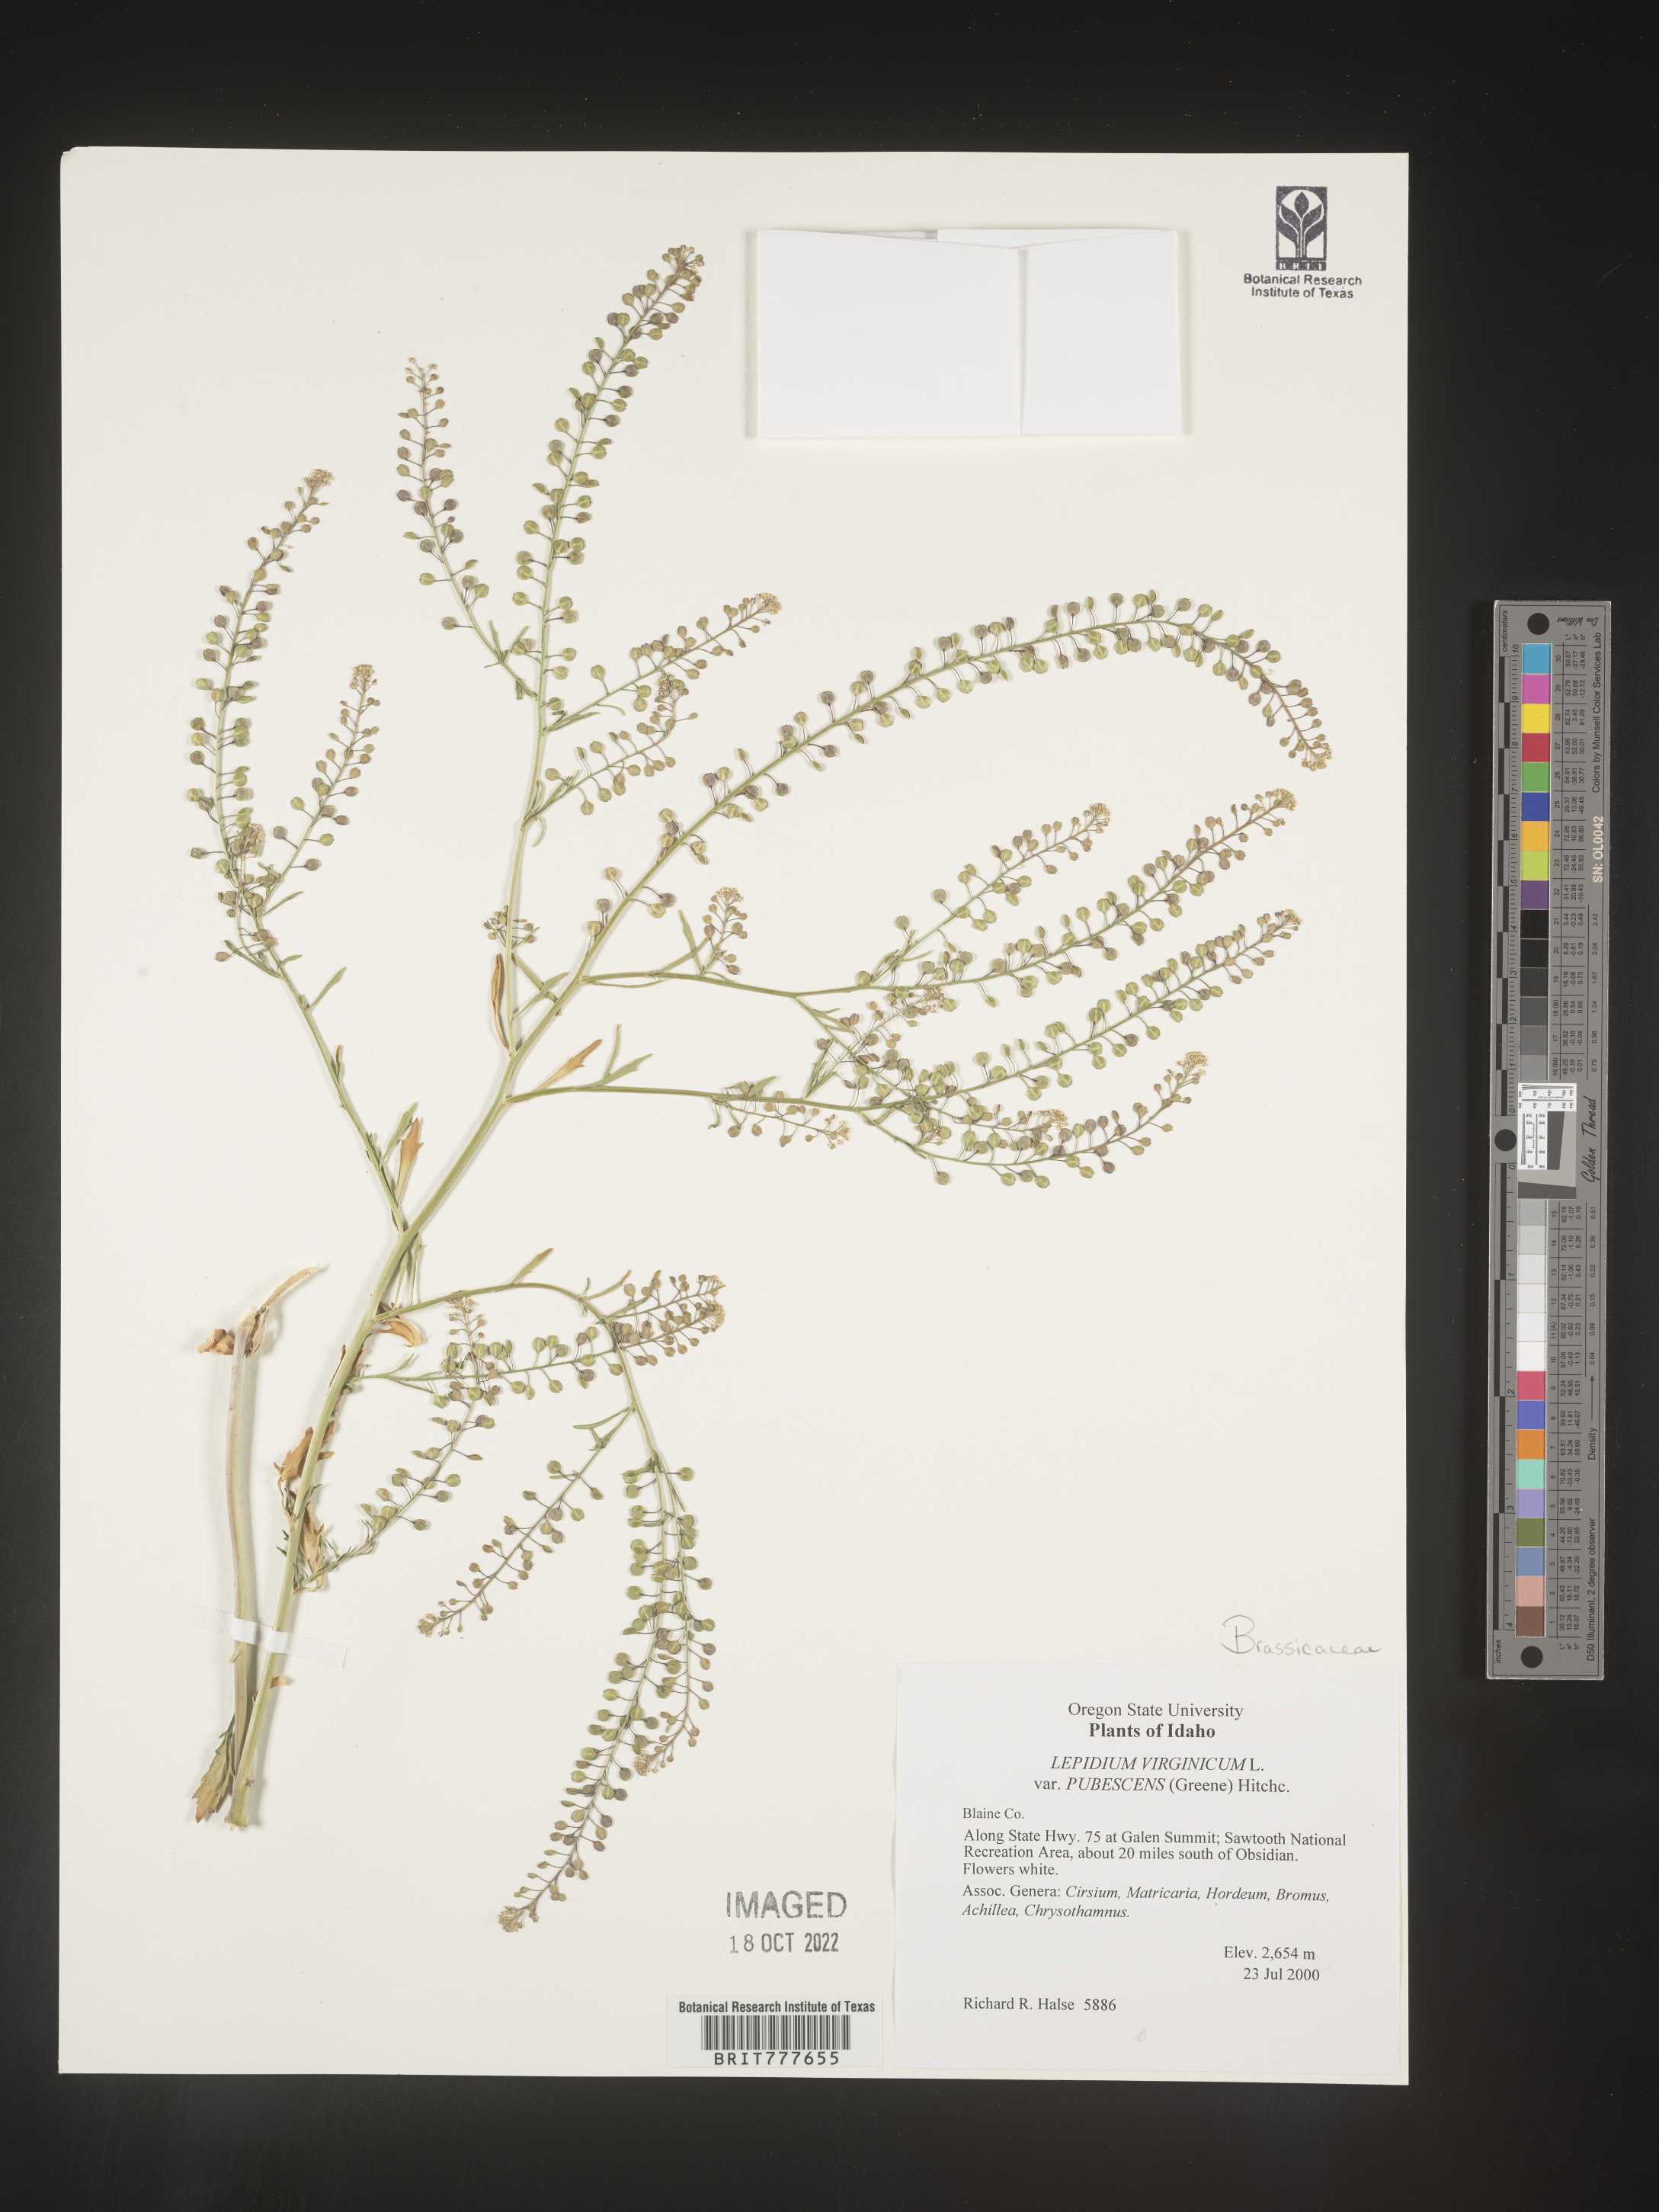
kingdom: Plantae
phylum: Tracheophyta
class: Magnoliopsida
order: Brassicales
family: Brassicaceae
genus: Lepidium
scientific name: Lepidium virginicum
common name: Least pepperwort
